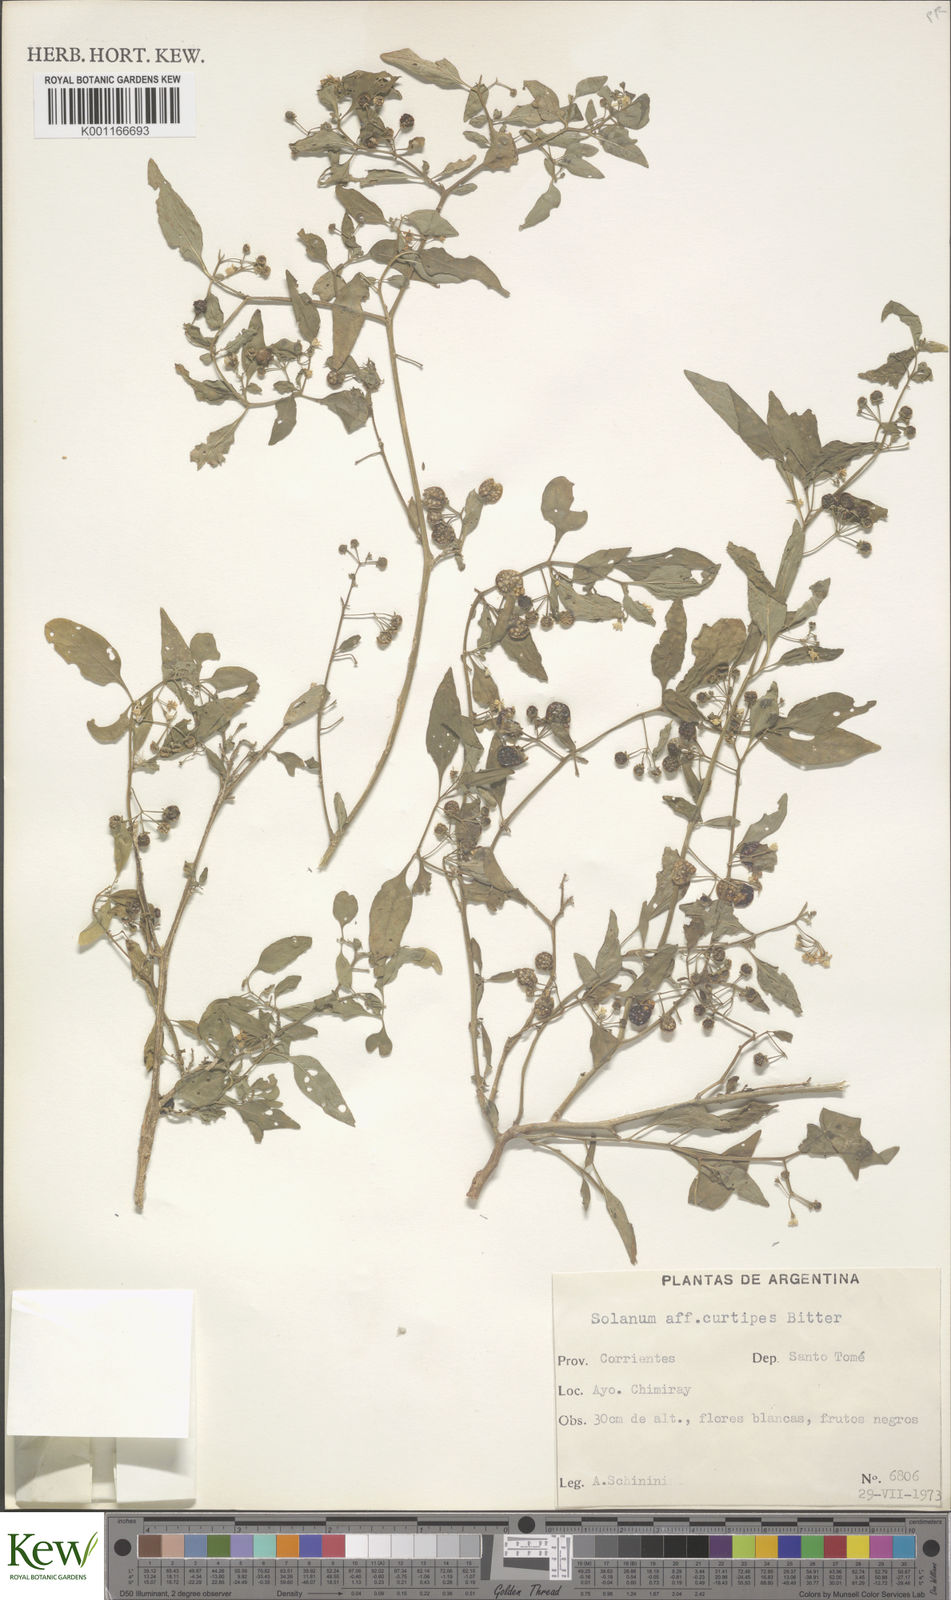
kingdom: Plantae
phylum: Tracheophyta
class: Magnoliopsida
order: Solanales
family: Solanaceae
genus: Solanum
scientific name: Solanum americanum
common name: American black nightshade
